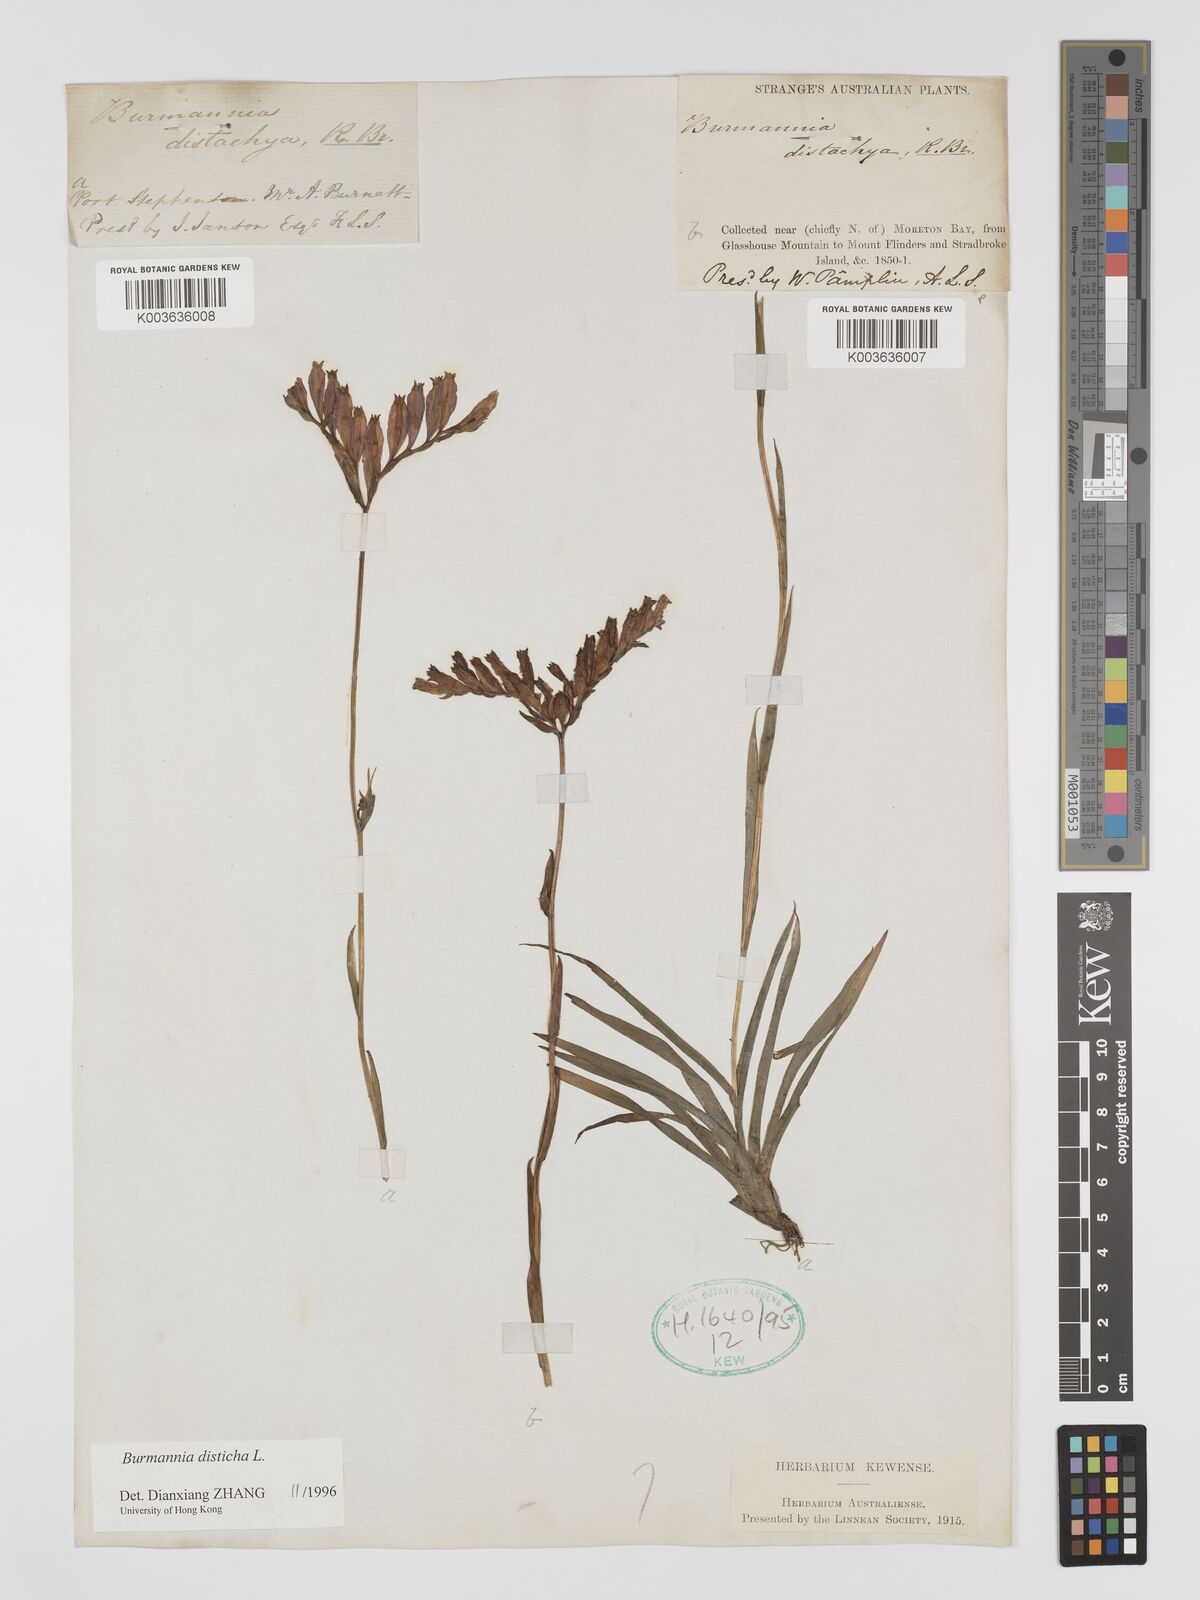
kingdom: Plantae
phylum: Tracheophyta
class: Liliopsida
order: Dioscoreales
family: Burmanniaceae
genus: Burmannia
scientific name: Burmannia disticha
